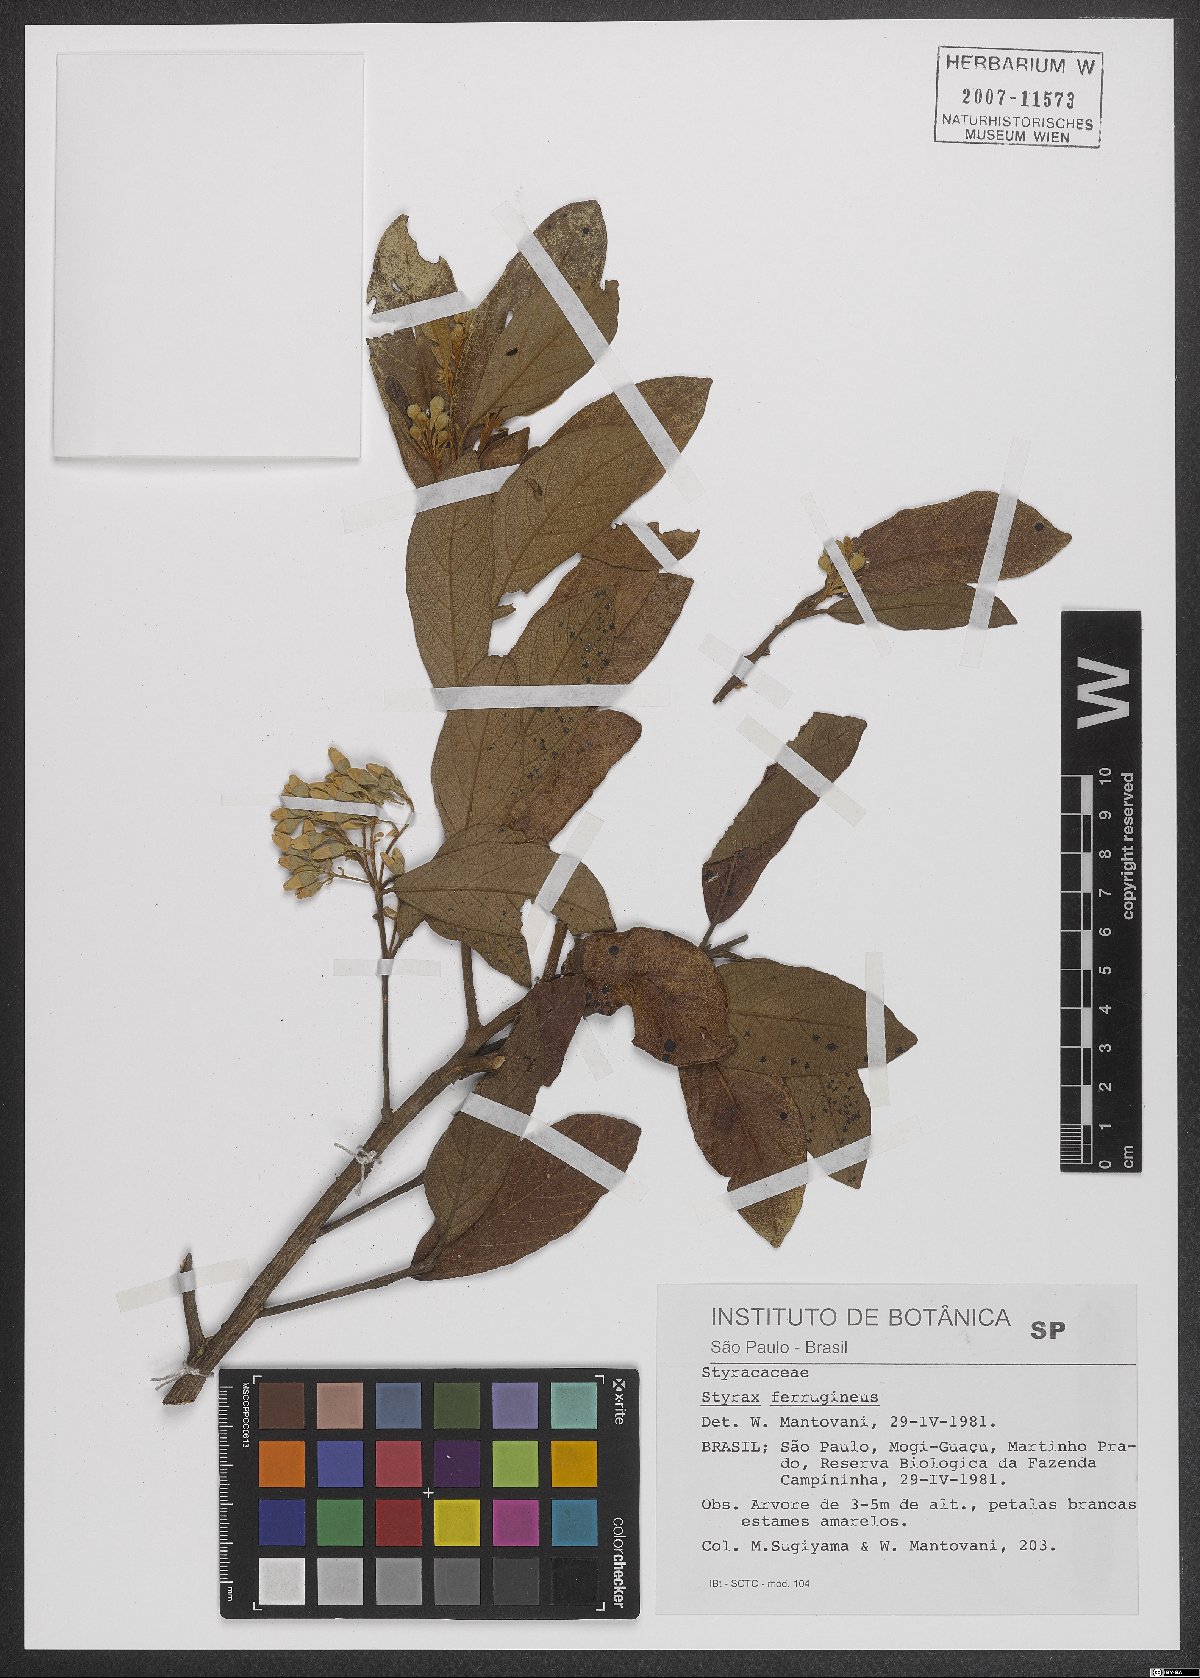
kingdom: Plantae
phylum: Tracheophyta
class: Magnoliopsida
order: Ericales
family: Styracaceae
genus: Styrax
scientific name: Styrax ferrugineus
